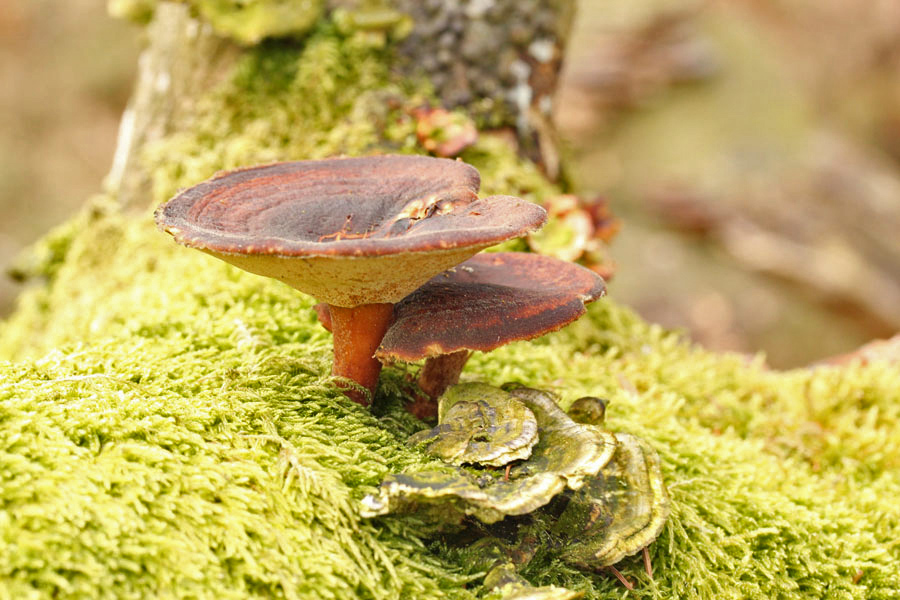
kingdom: Fungi
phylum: Basidiomycota
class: Agaricomycetes
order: Polyporales
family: Polyporaceae
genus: Lentinus
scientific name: Lentinus brumalis
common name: vinter-stilkporesvamp
